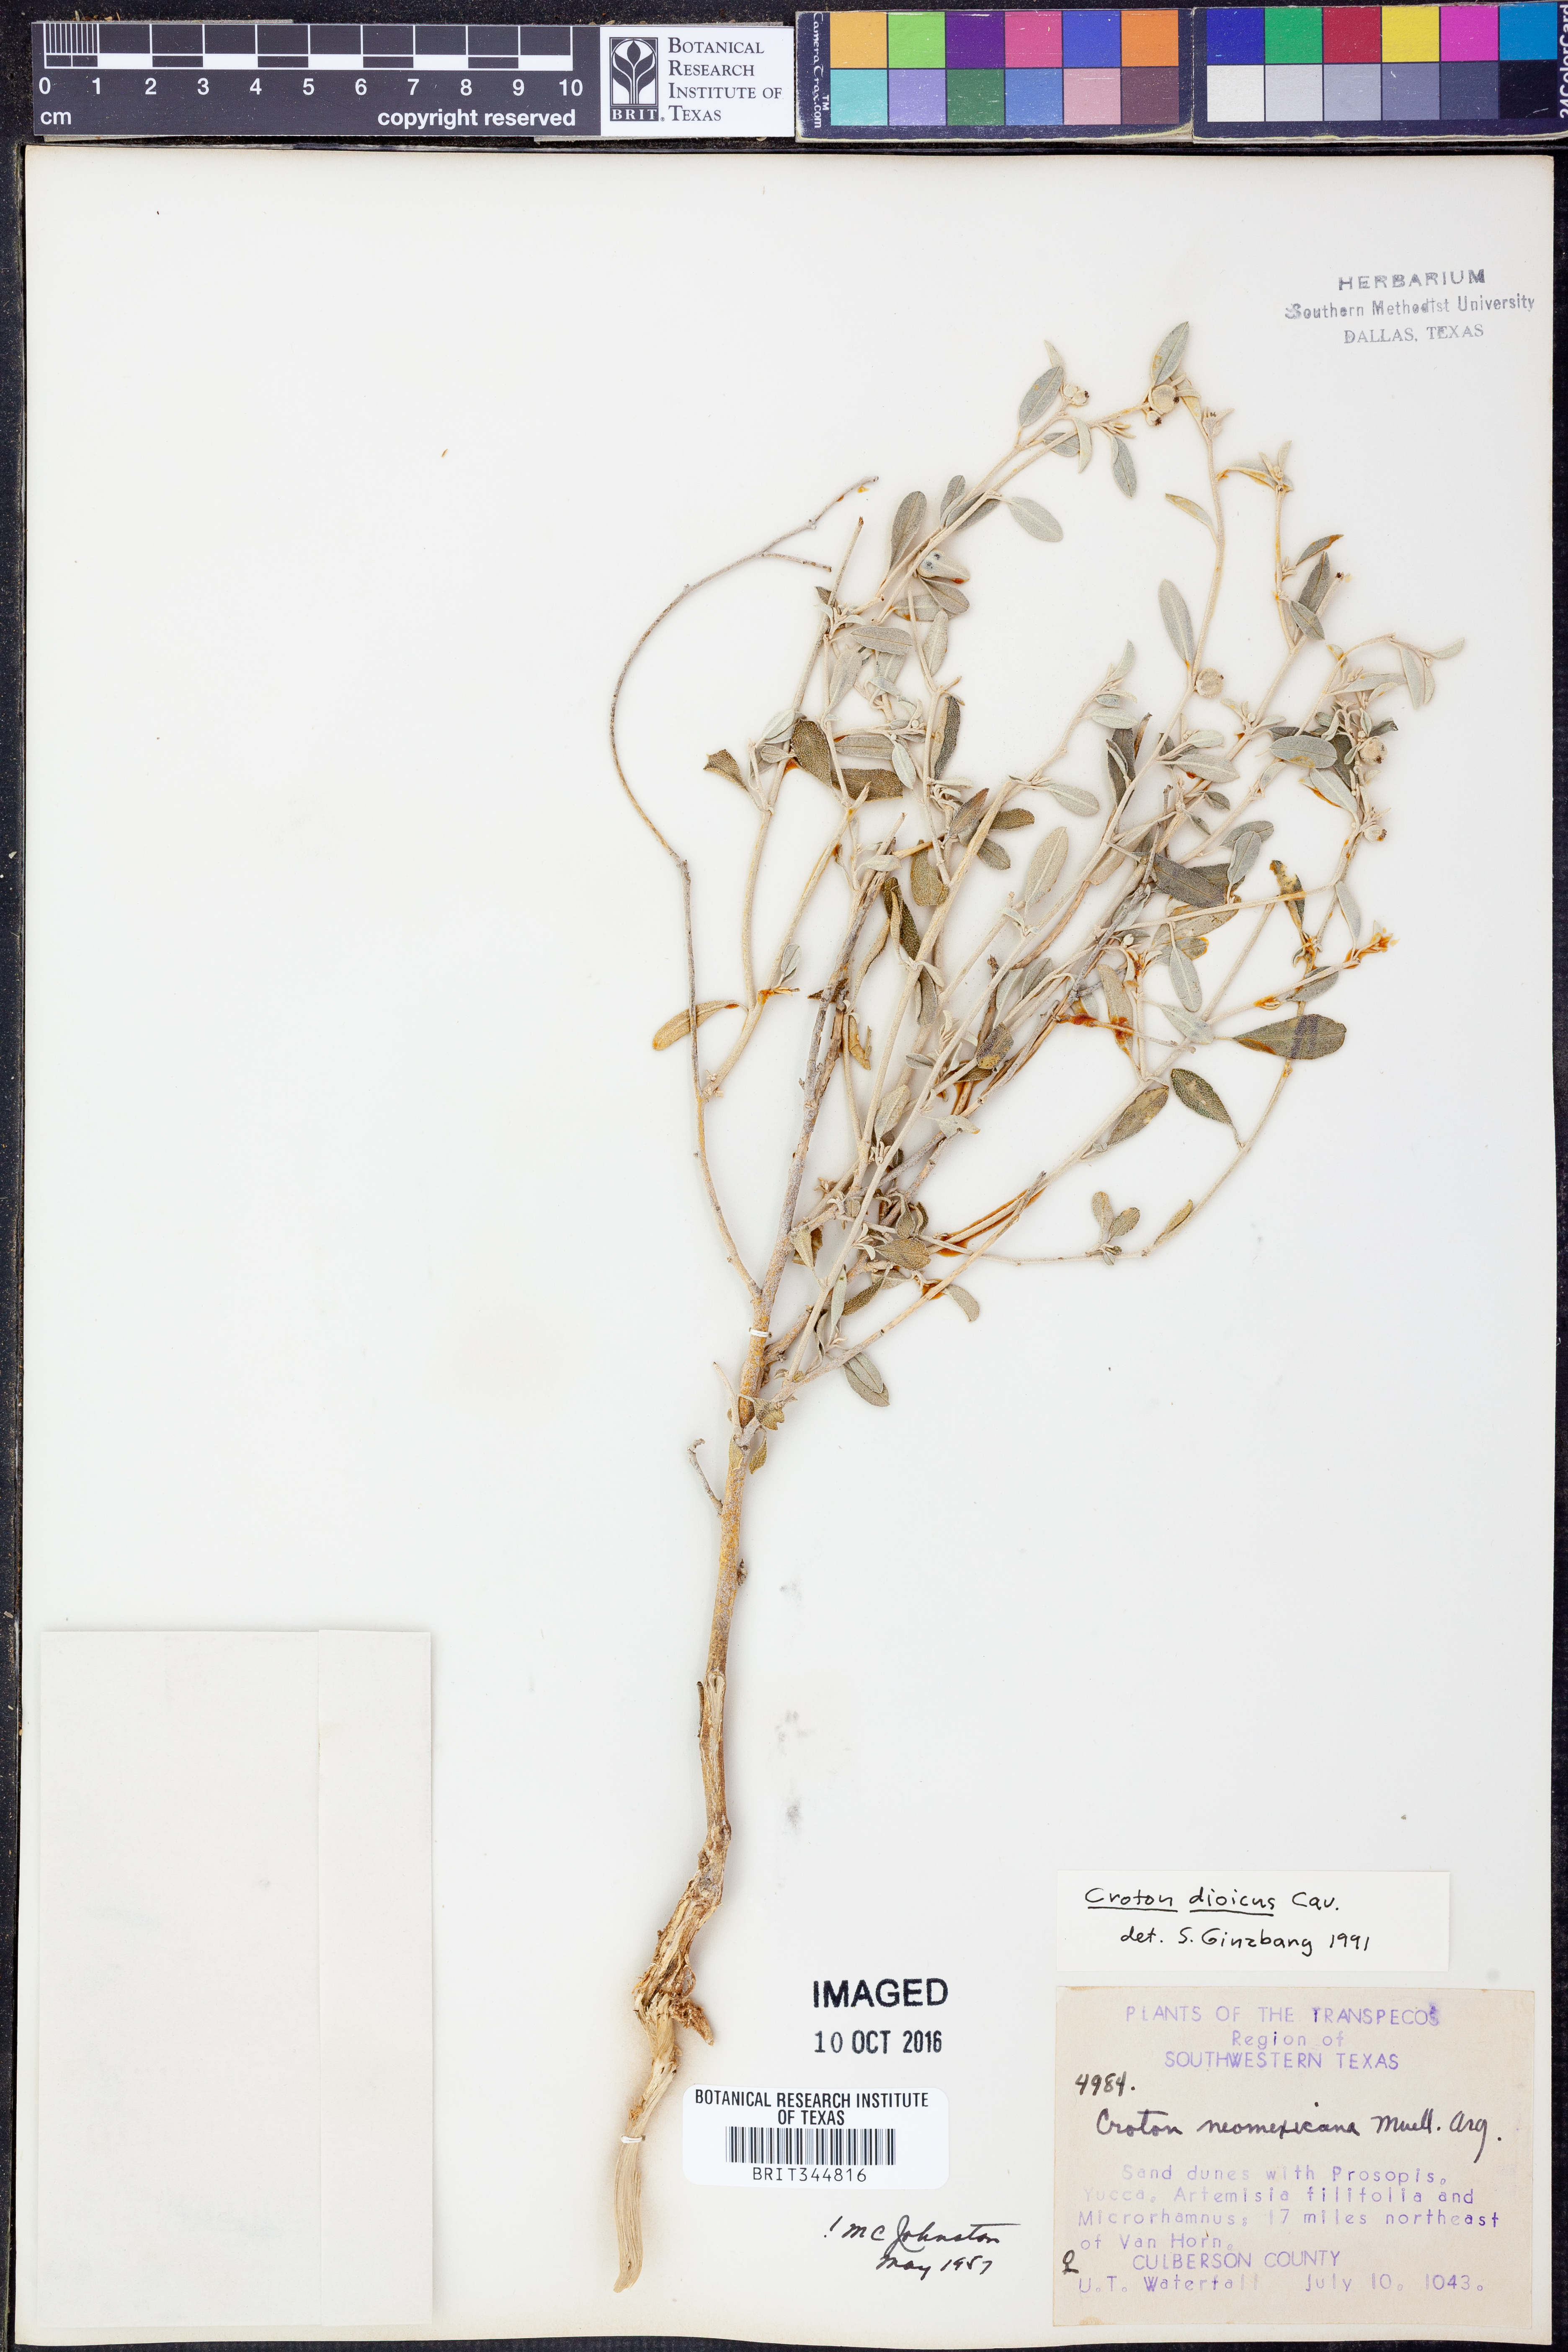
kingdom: Plantae
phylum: Tracheophyta
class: Magnoliopsida
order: Malpighiales
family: Euphorbiaceae
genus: Croton
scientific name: Croton dioicus
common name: Grassland croton
